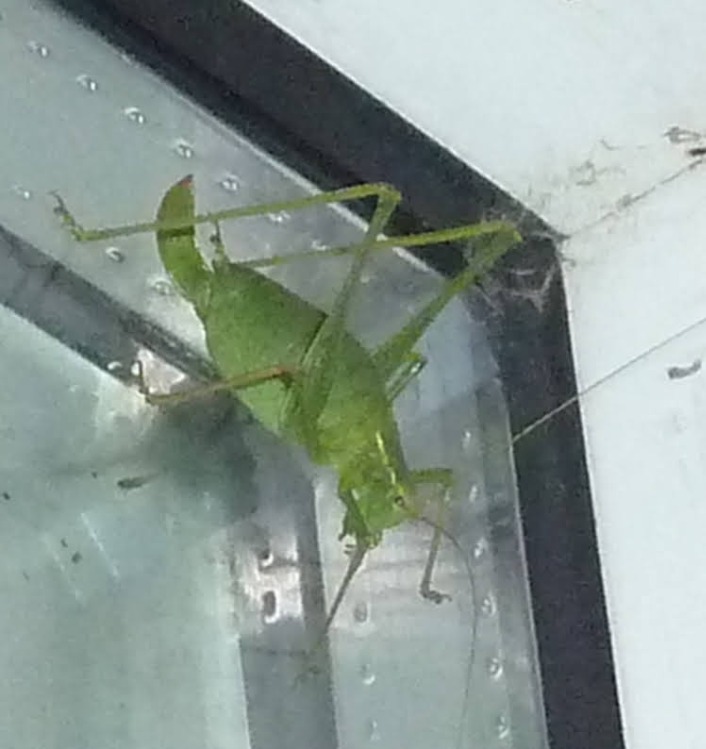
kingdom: Animalia
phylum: Arthropoda
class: Insecta
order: Orthoptera
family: Tettigoniidae
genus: Leptophyes
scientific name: Leptophyes punctatissima
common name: Krumknivgræshoppe
